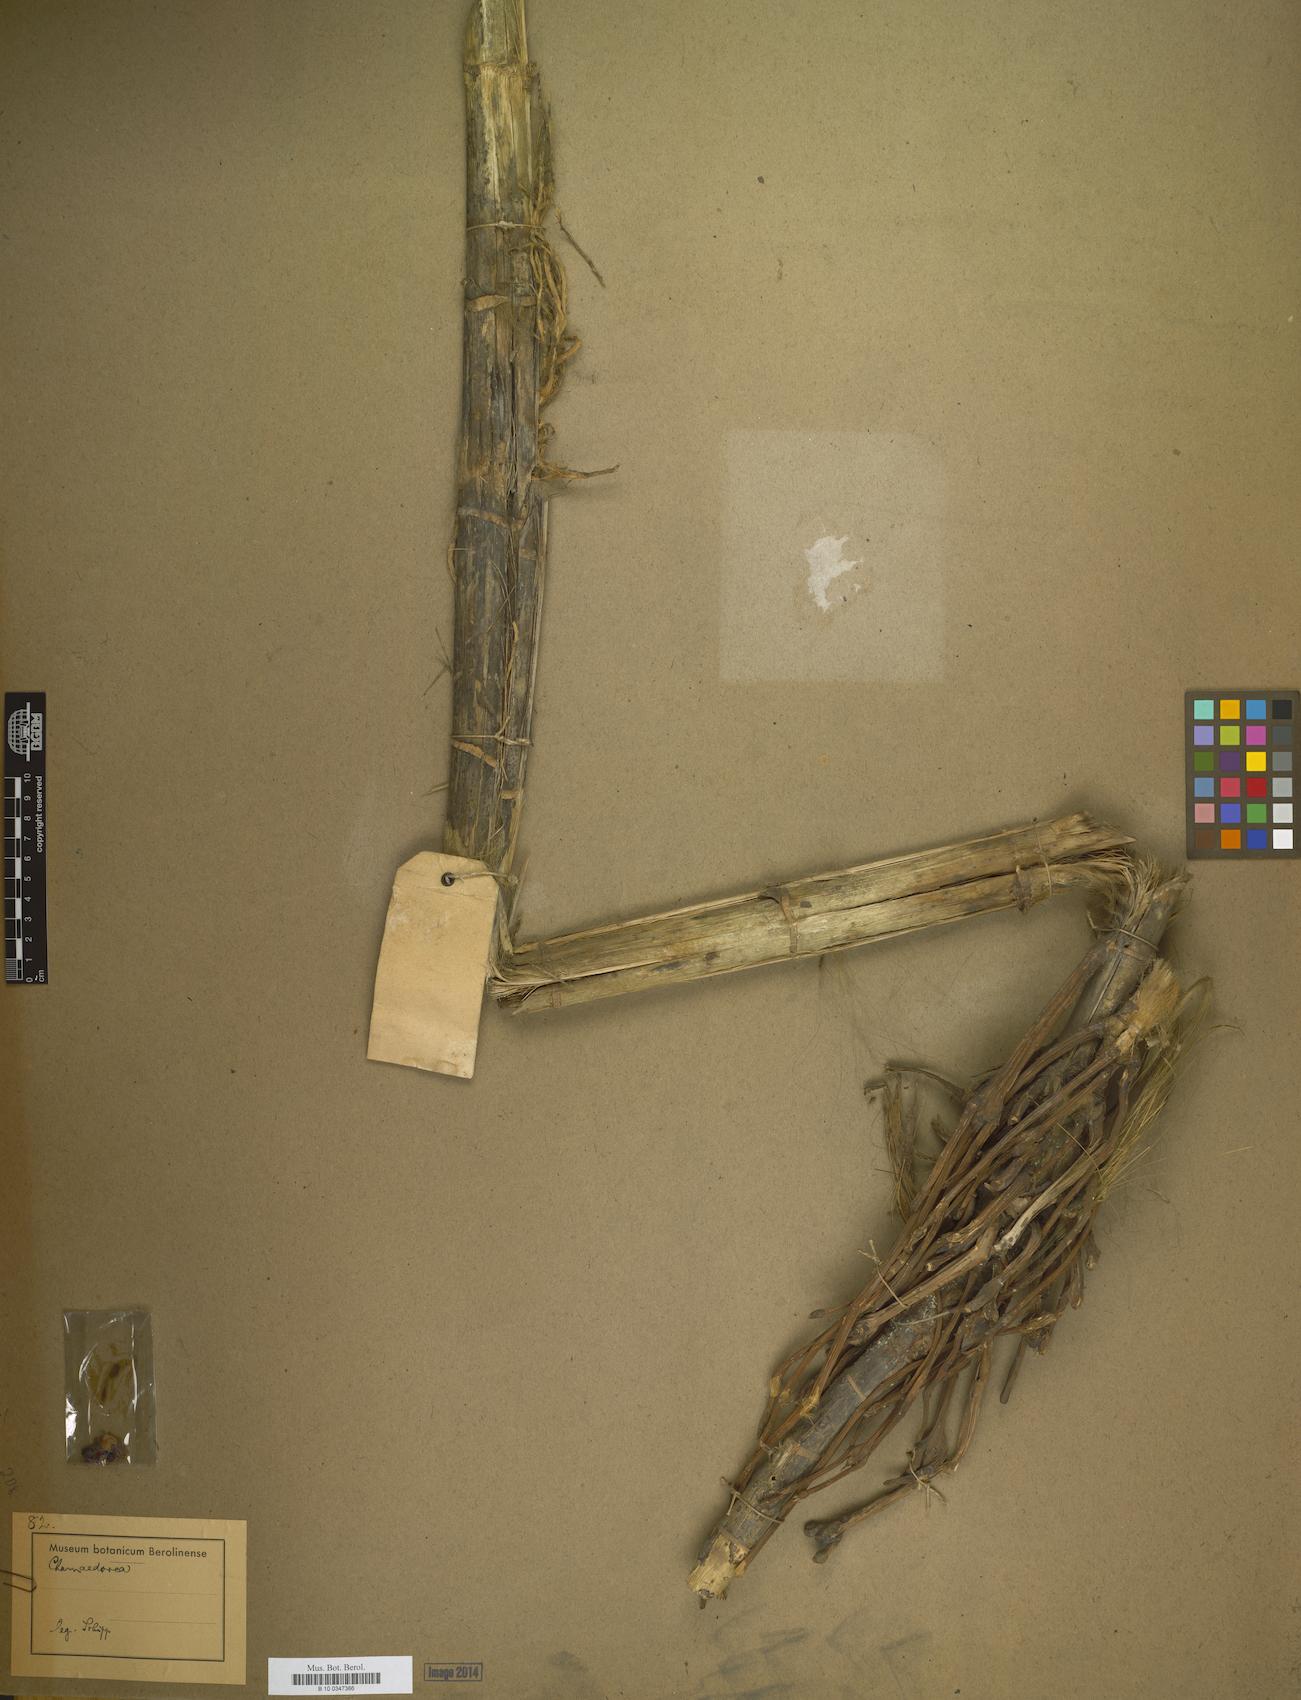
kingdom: Plantae
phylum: Tracheophyta
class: Liliopsida
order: Arecales
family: Arecaceae
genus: Chamaedorea
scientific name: Chamaedorea
